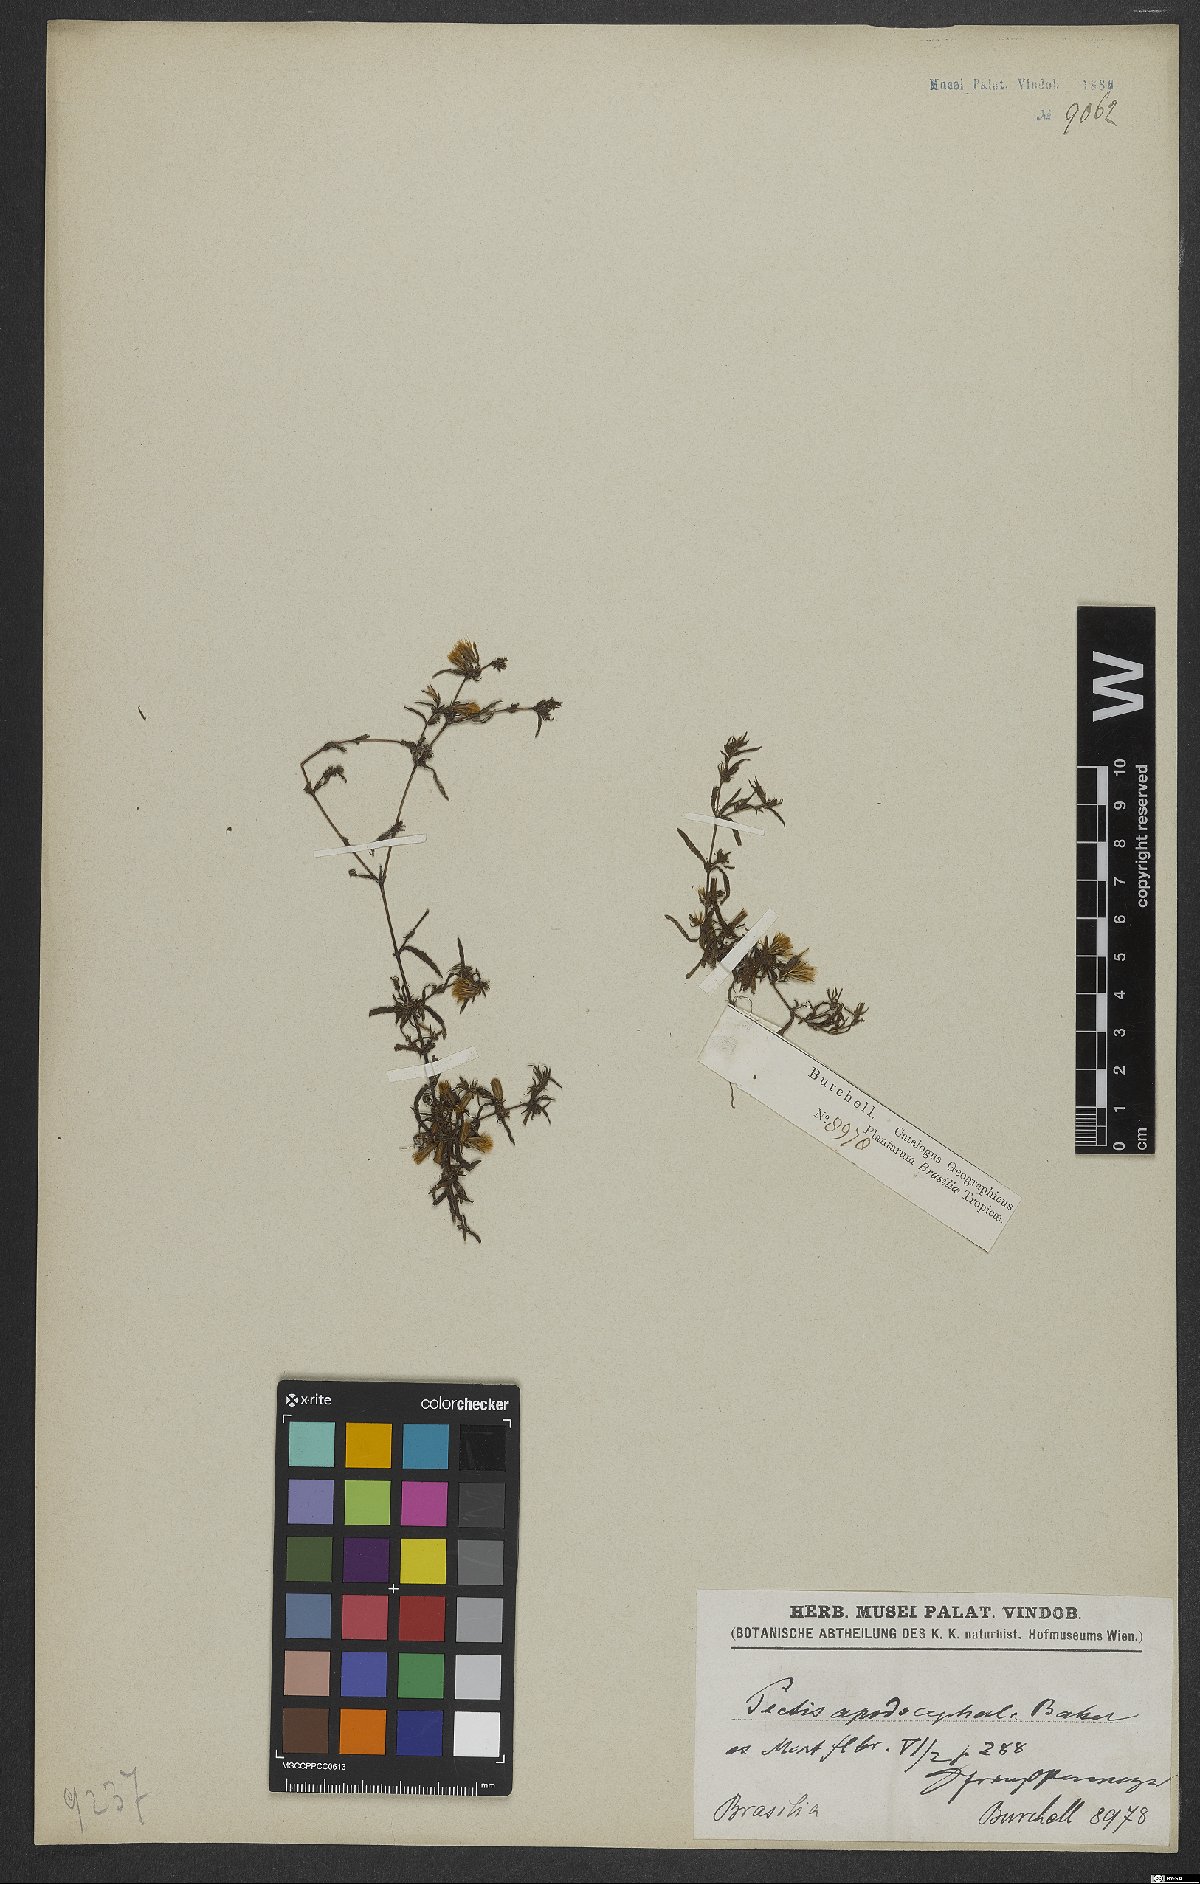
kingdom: Plantae
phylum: Tracheophyta
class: Magnoliopsida
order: Asterales
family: Asteraceae
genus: Pectis
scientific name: Pectis brevipedunculata
